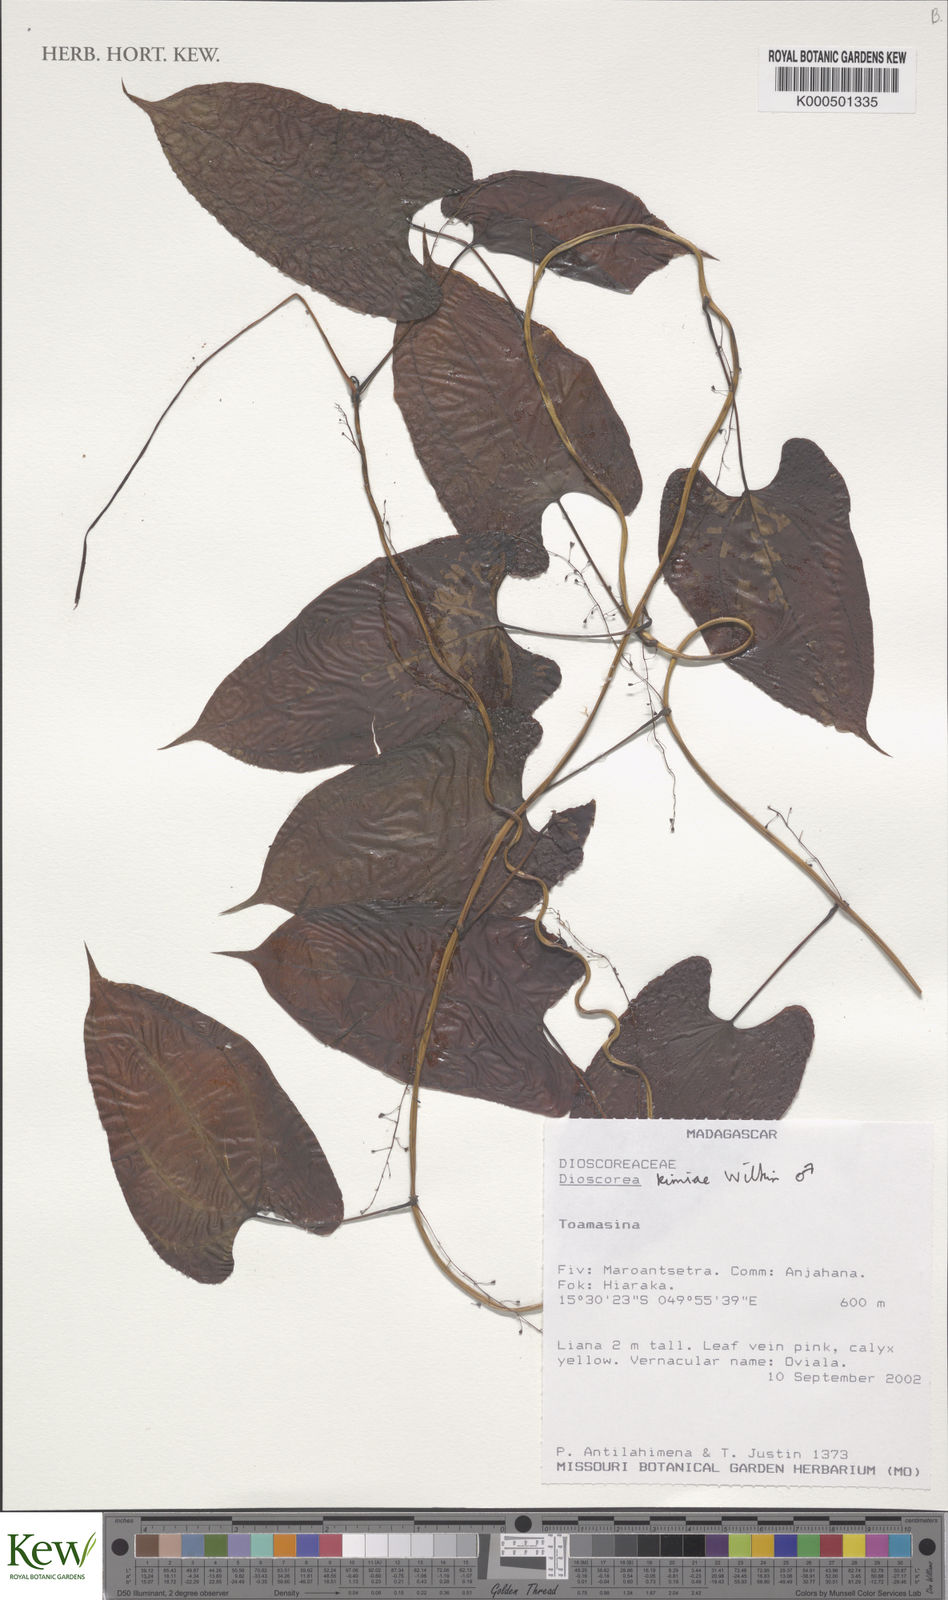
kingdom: Plantae
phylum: Tracheophyta
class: Liliopsida
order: Dioscoreales
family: Dioscoreaceae
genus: Dioscorea
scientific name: Dioscorea kimiae
